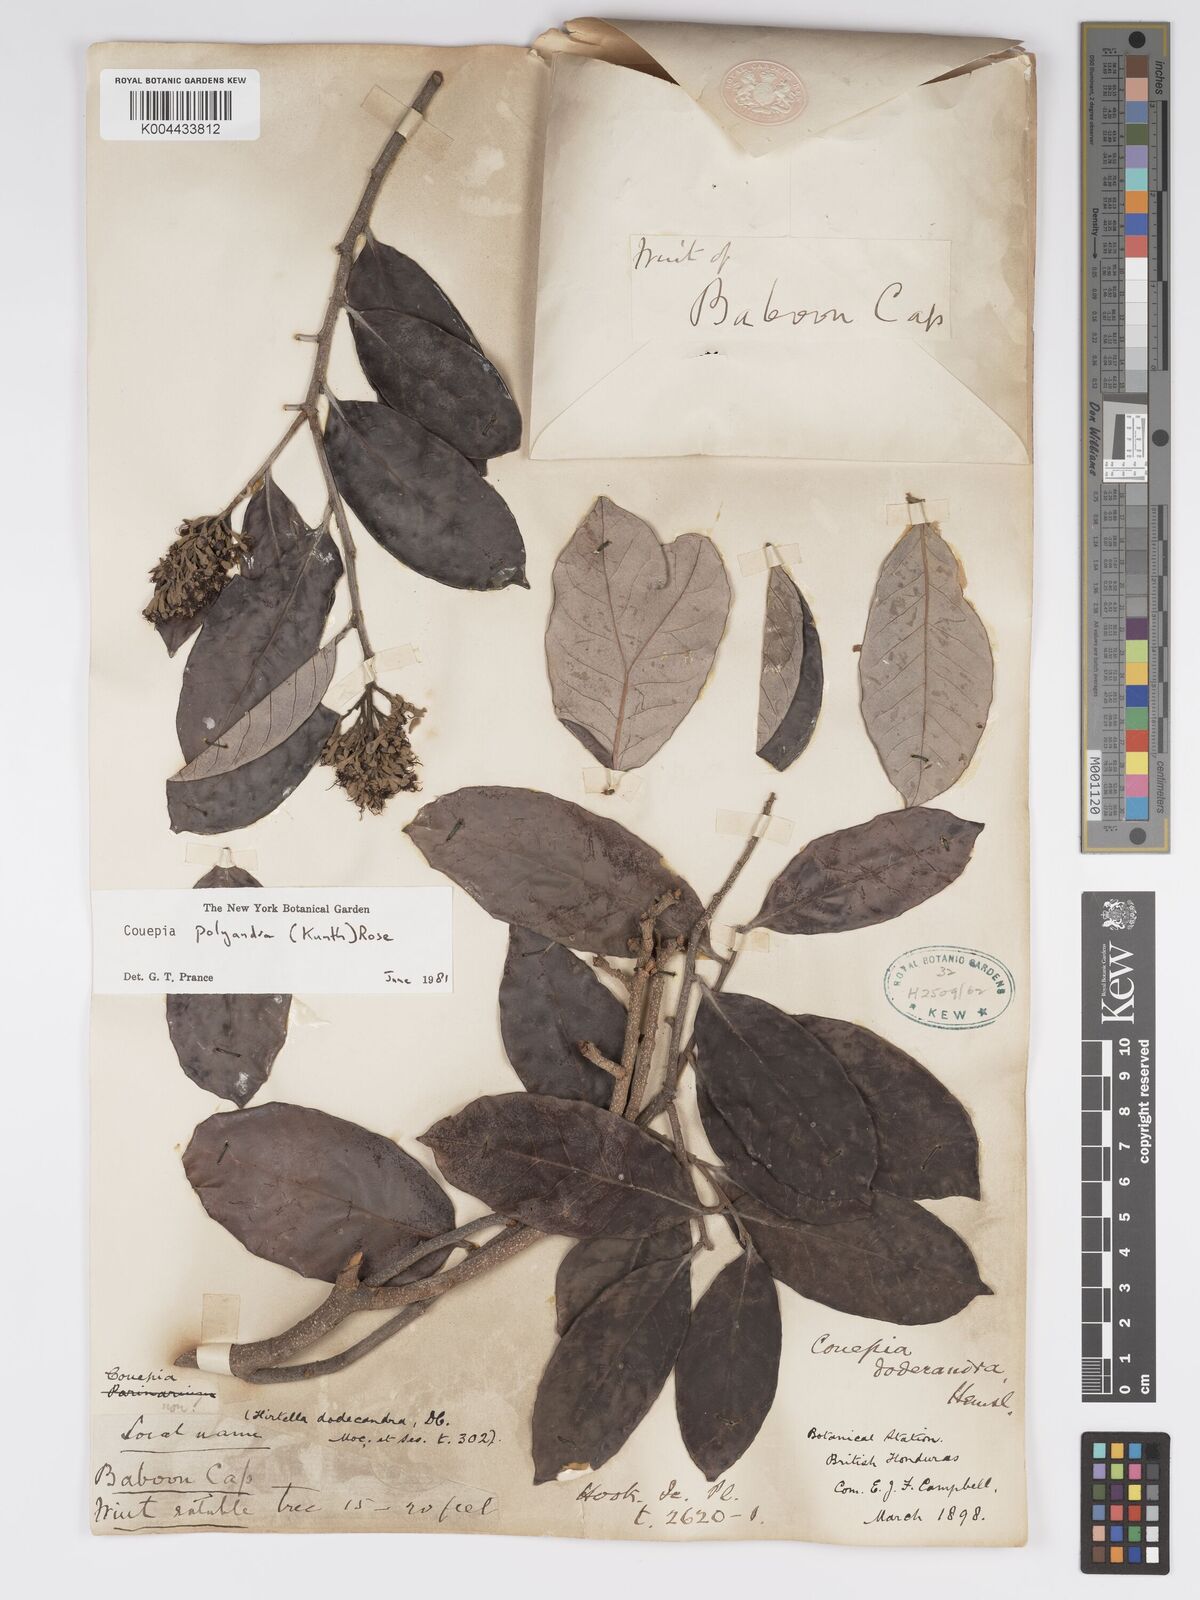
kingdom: Plantae
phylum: Tracheophyta
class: Magnoliopsida
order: Malpighiales
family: Chrysobalanaceae
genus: Couepia
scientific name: Couepia polyandra
